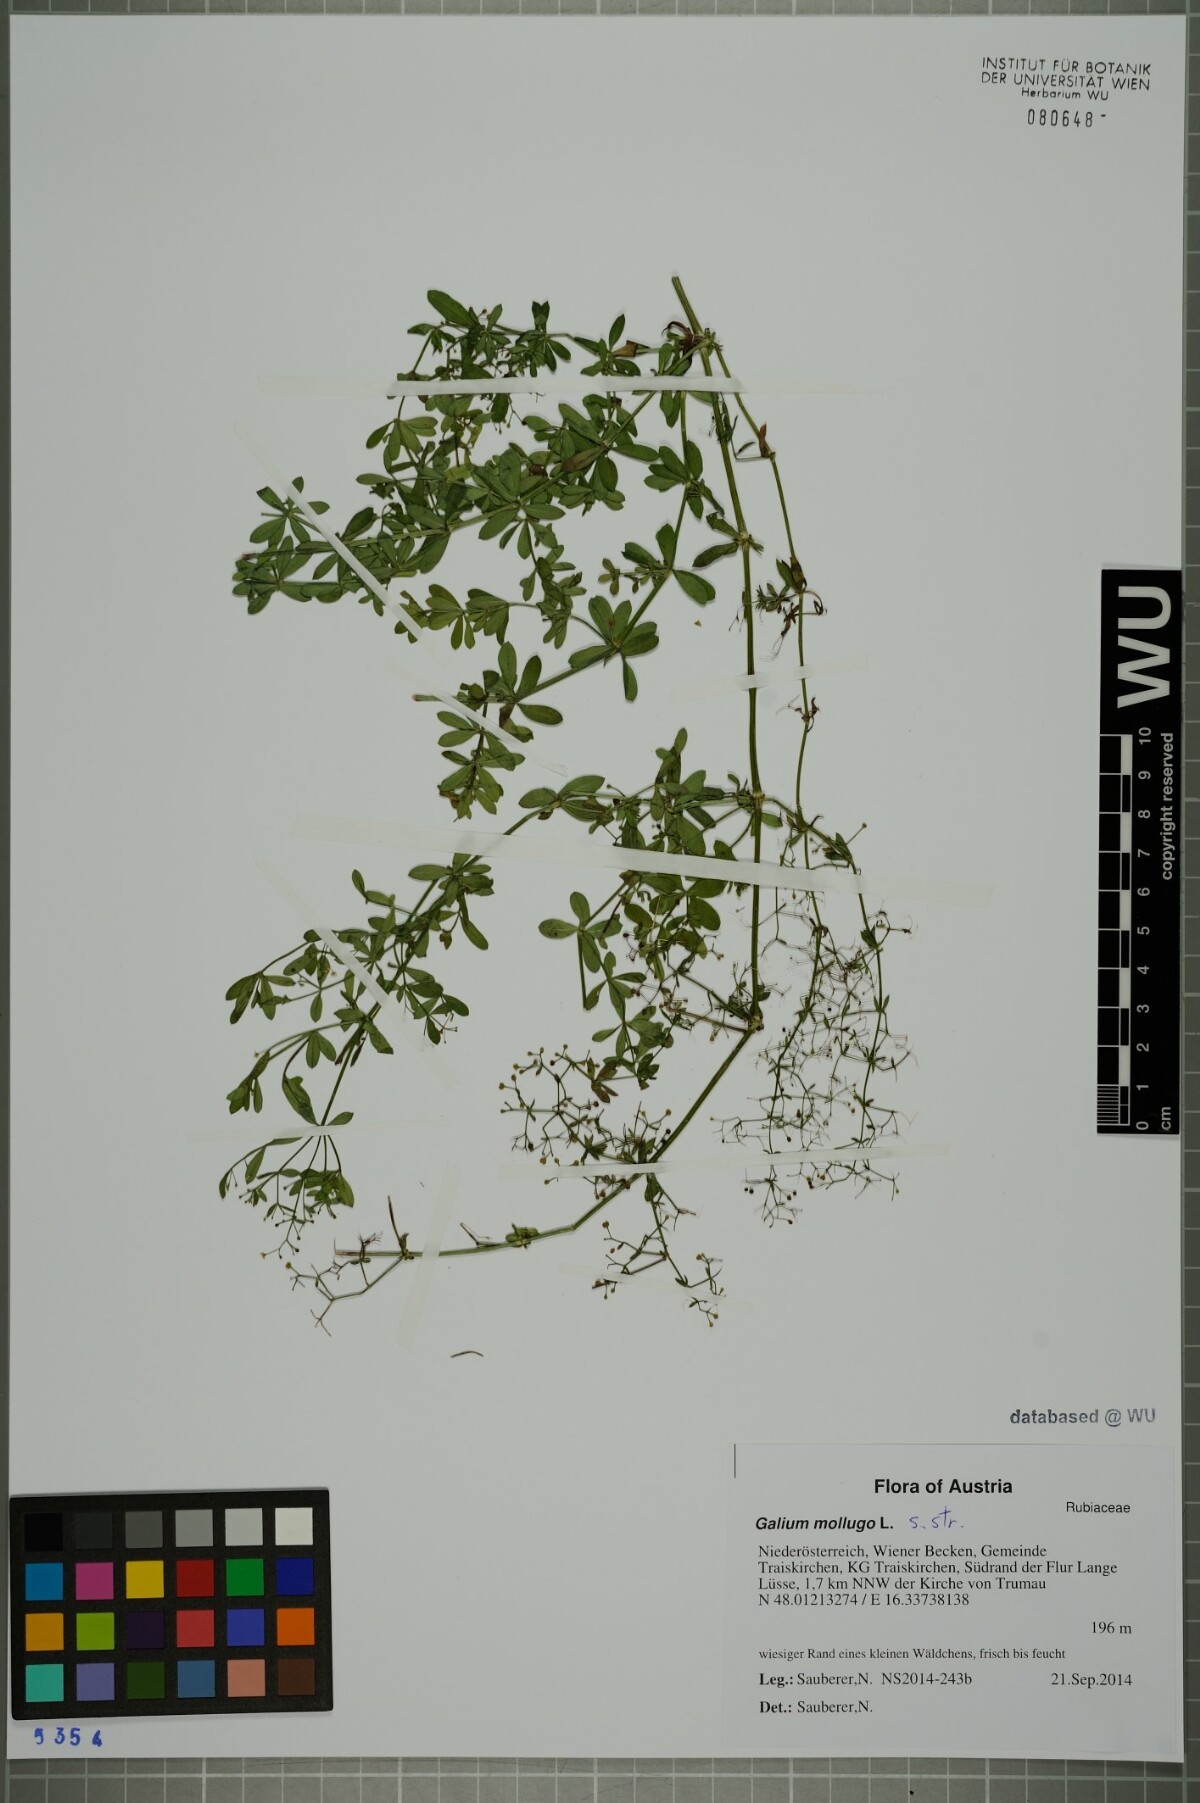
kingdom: Plantae
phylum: Tracheophyta
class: Magnoliopsida
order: Gentianales
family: Rubiaceae
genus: Galium
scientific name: Galium mollugo
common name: Hedge bedstraw
